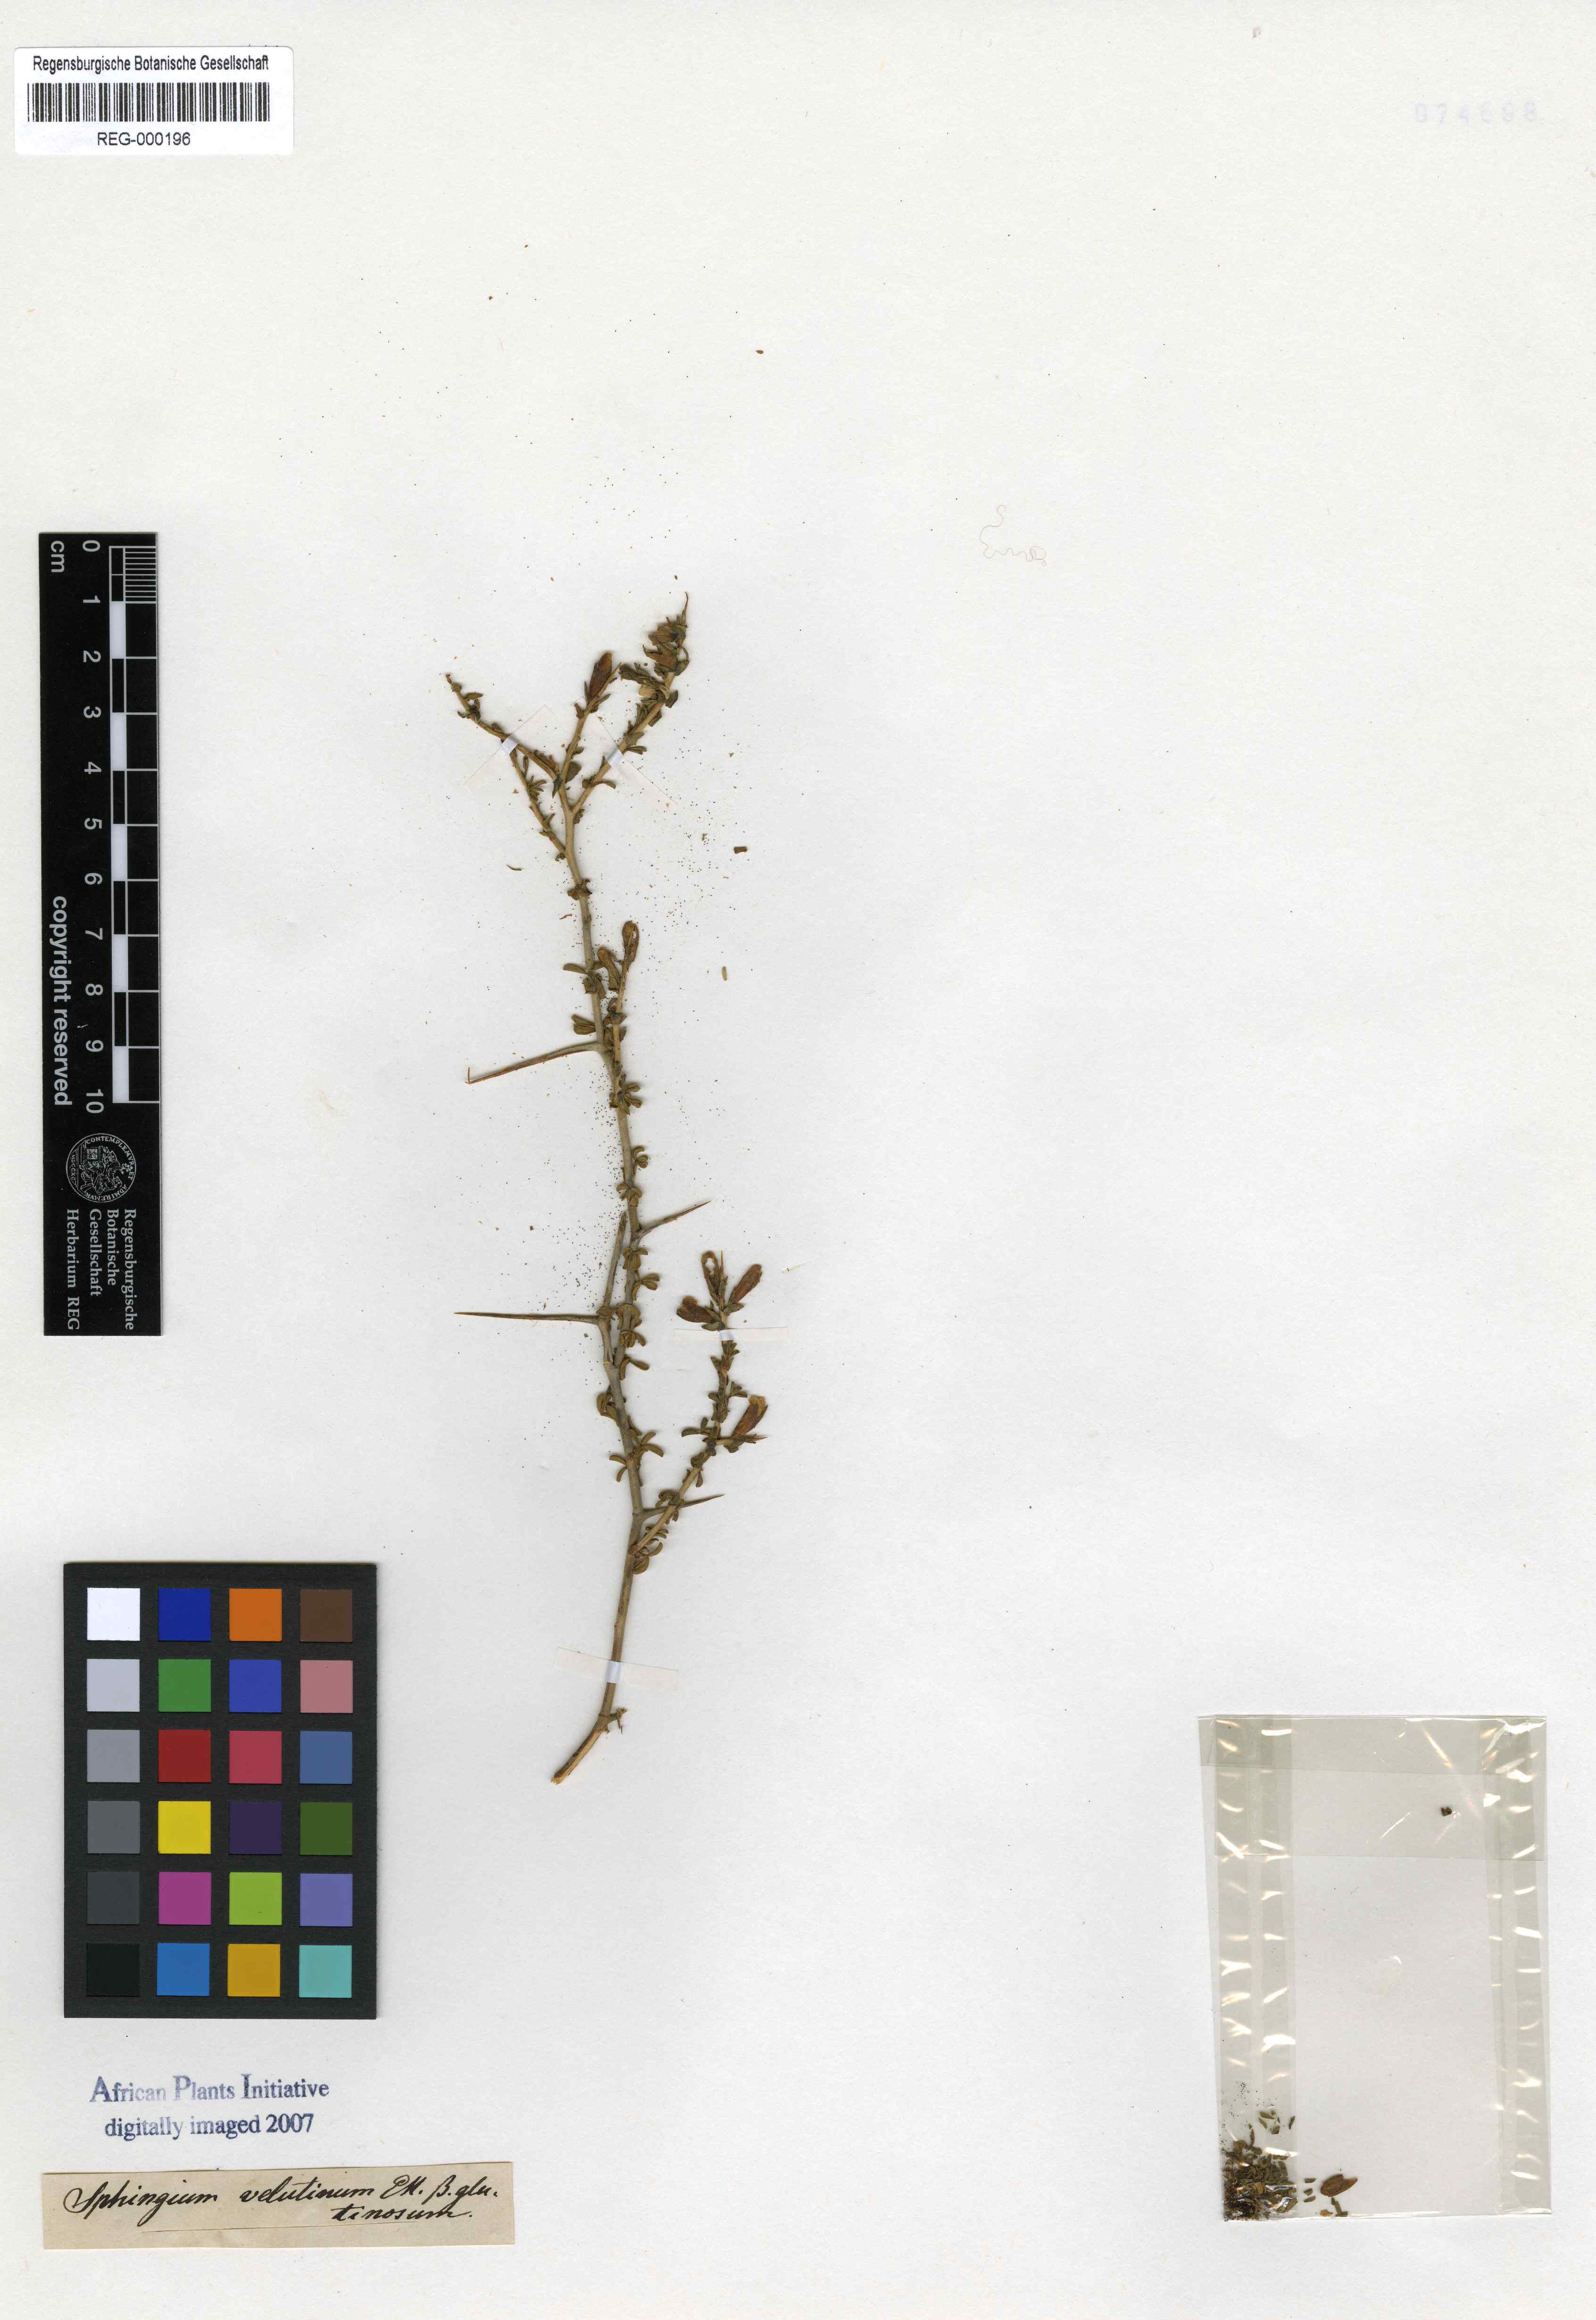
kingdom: Plantae
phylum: Tracheophyta
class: Magnoliopsida
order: Fabales
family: Fabaceae
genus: Melolobium
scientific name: Melolobium candicans
